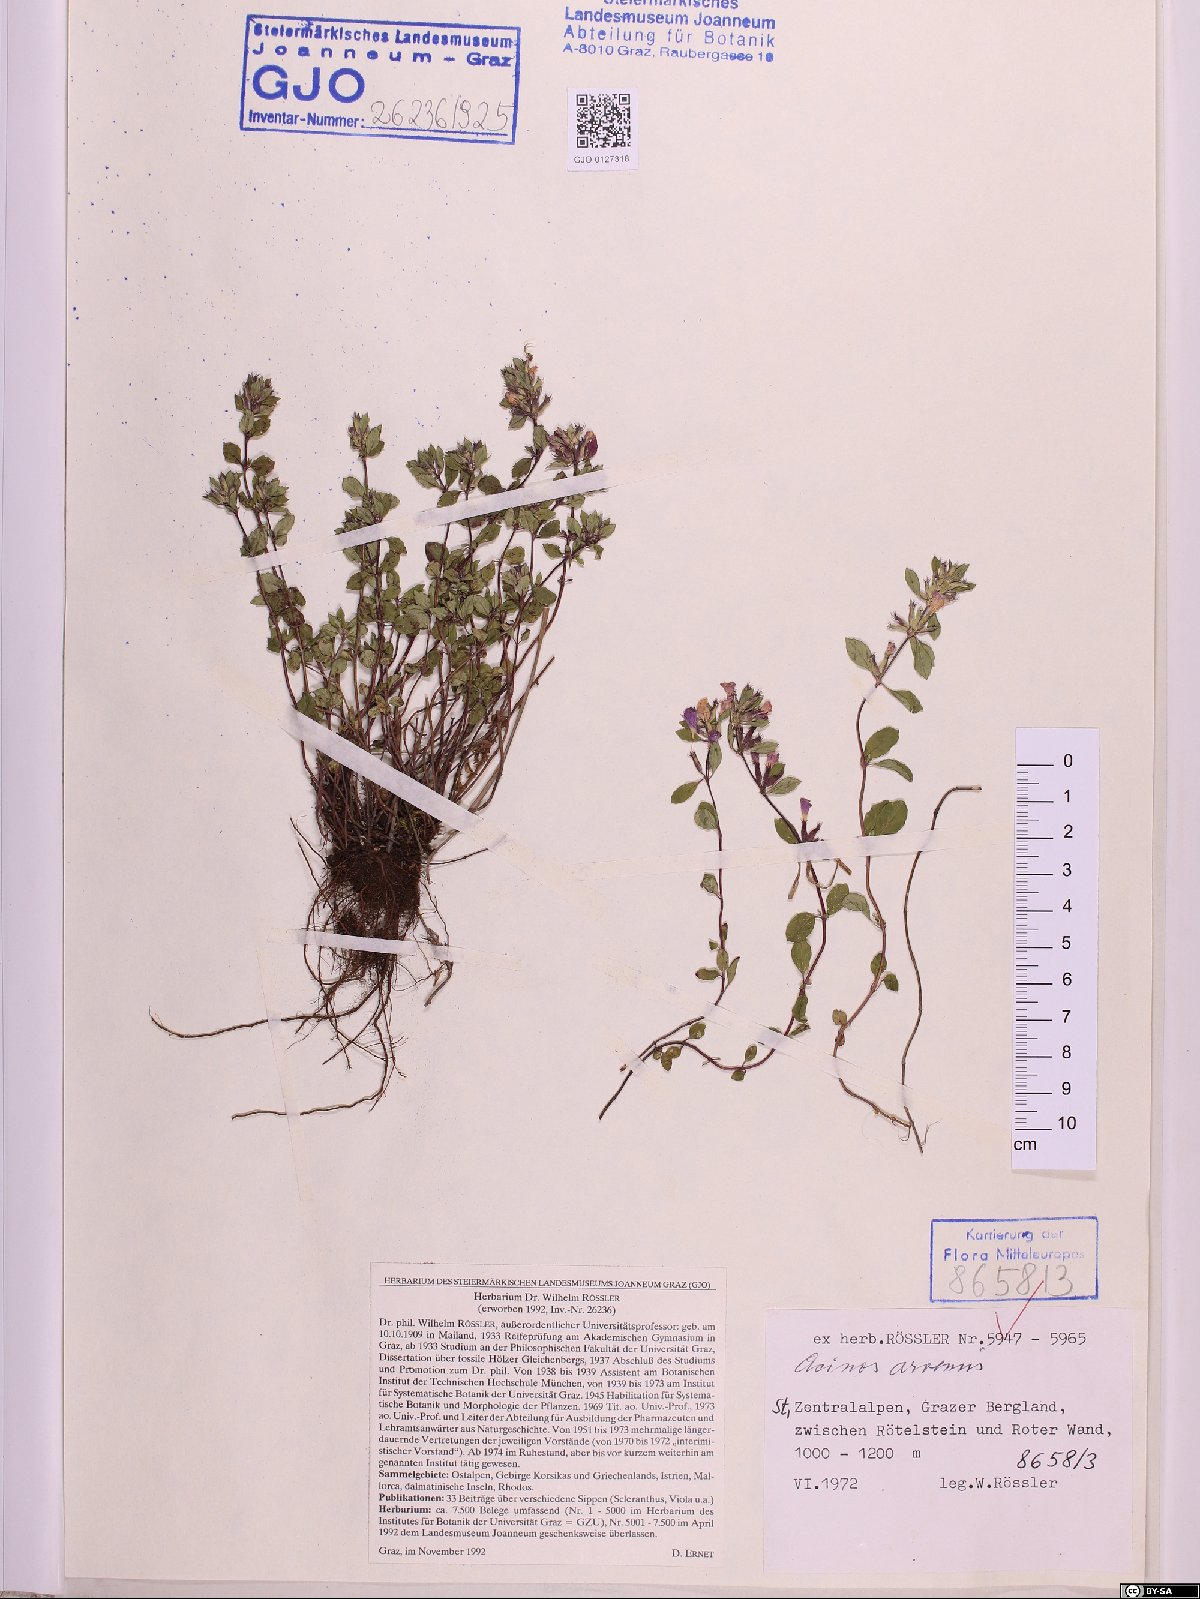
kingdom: Plantae
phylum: Tracheophyta
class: Magnoliopsida
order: Lamiales
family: Lamiaceae
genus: Clinopodium
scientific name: Clinopodium acinos
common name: Basil thyme
